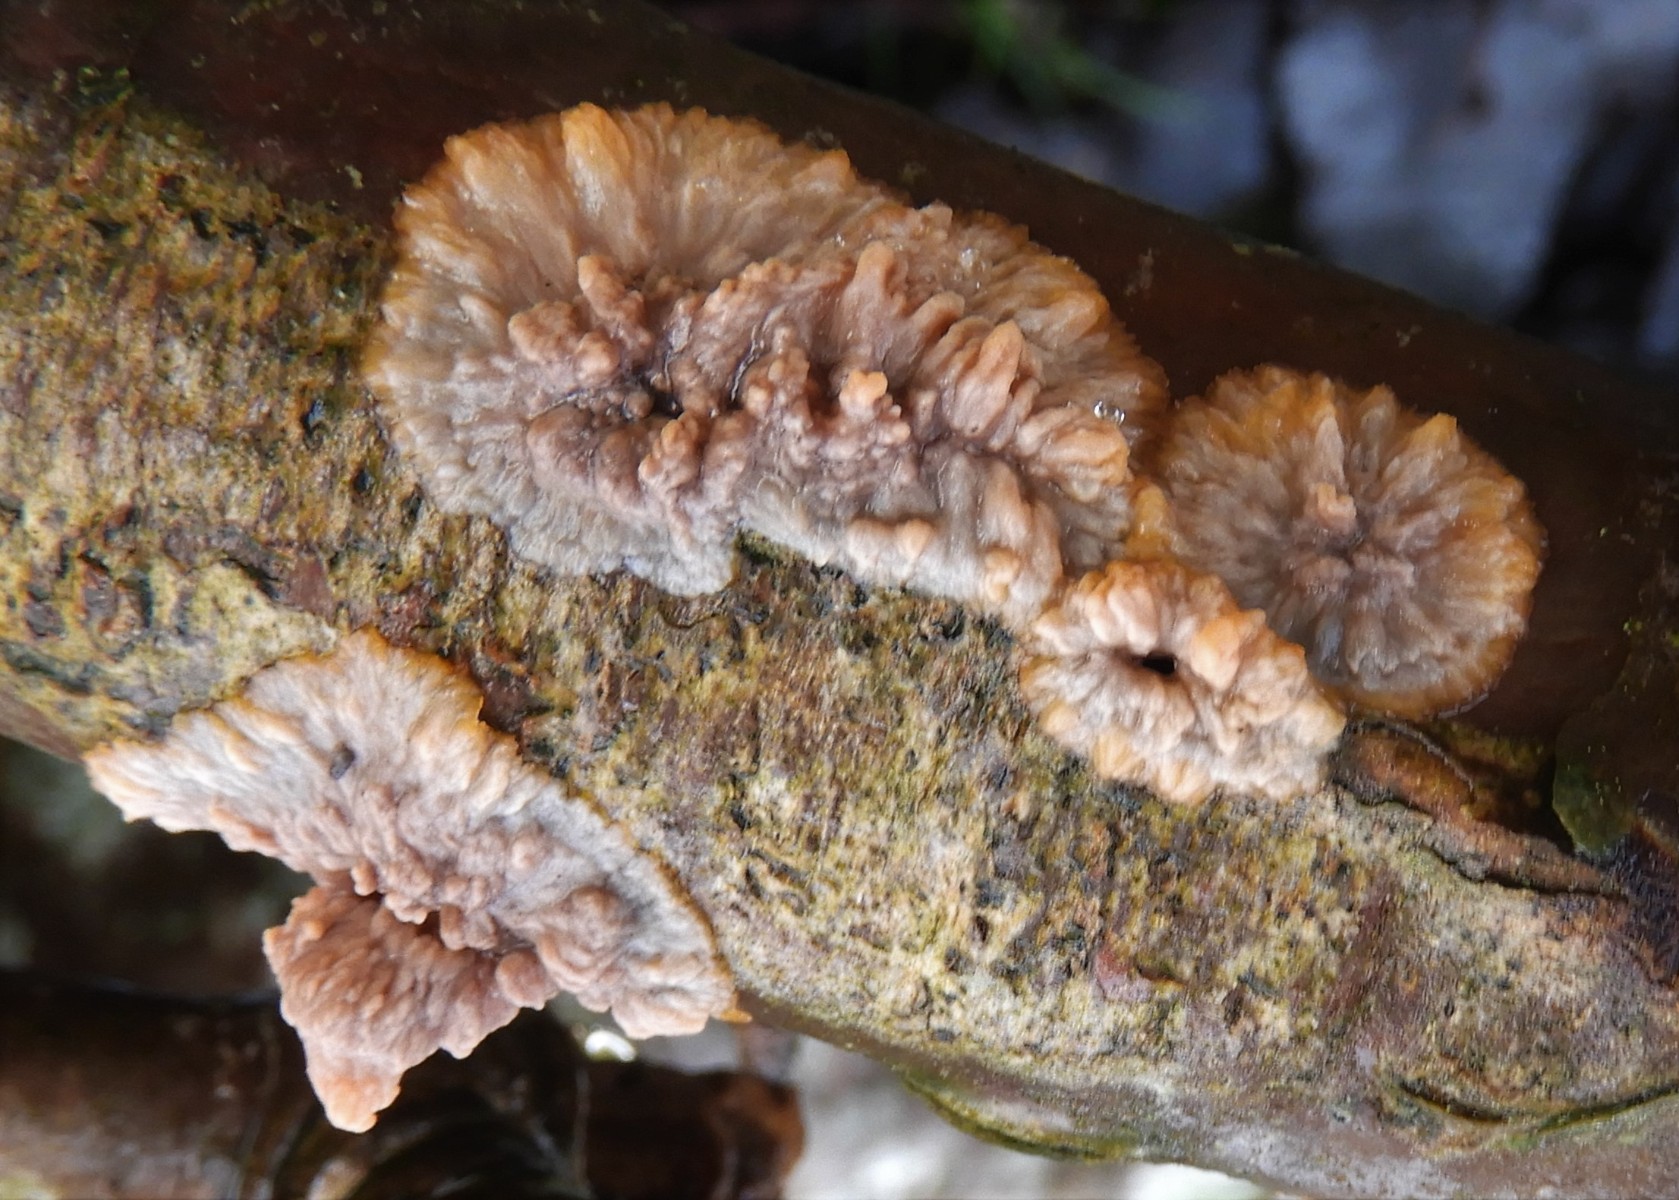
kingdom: Fungi
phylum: Basidiomycota
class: Agaricomycetes
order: Polyporales
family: Meruliaceae
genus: Phlebia
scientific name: Phlebia radiata
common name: stråle-åresvamp
